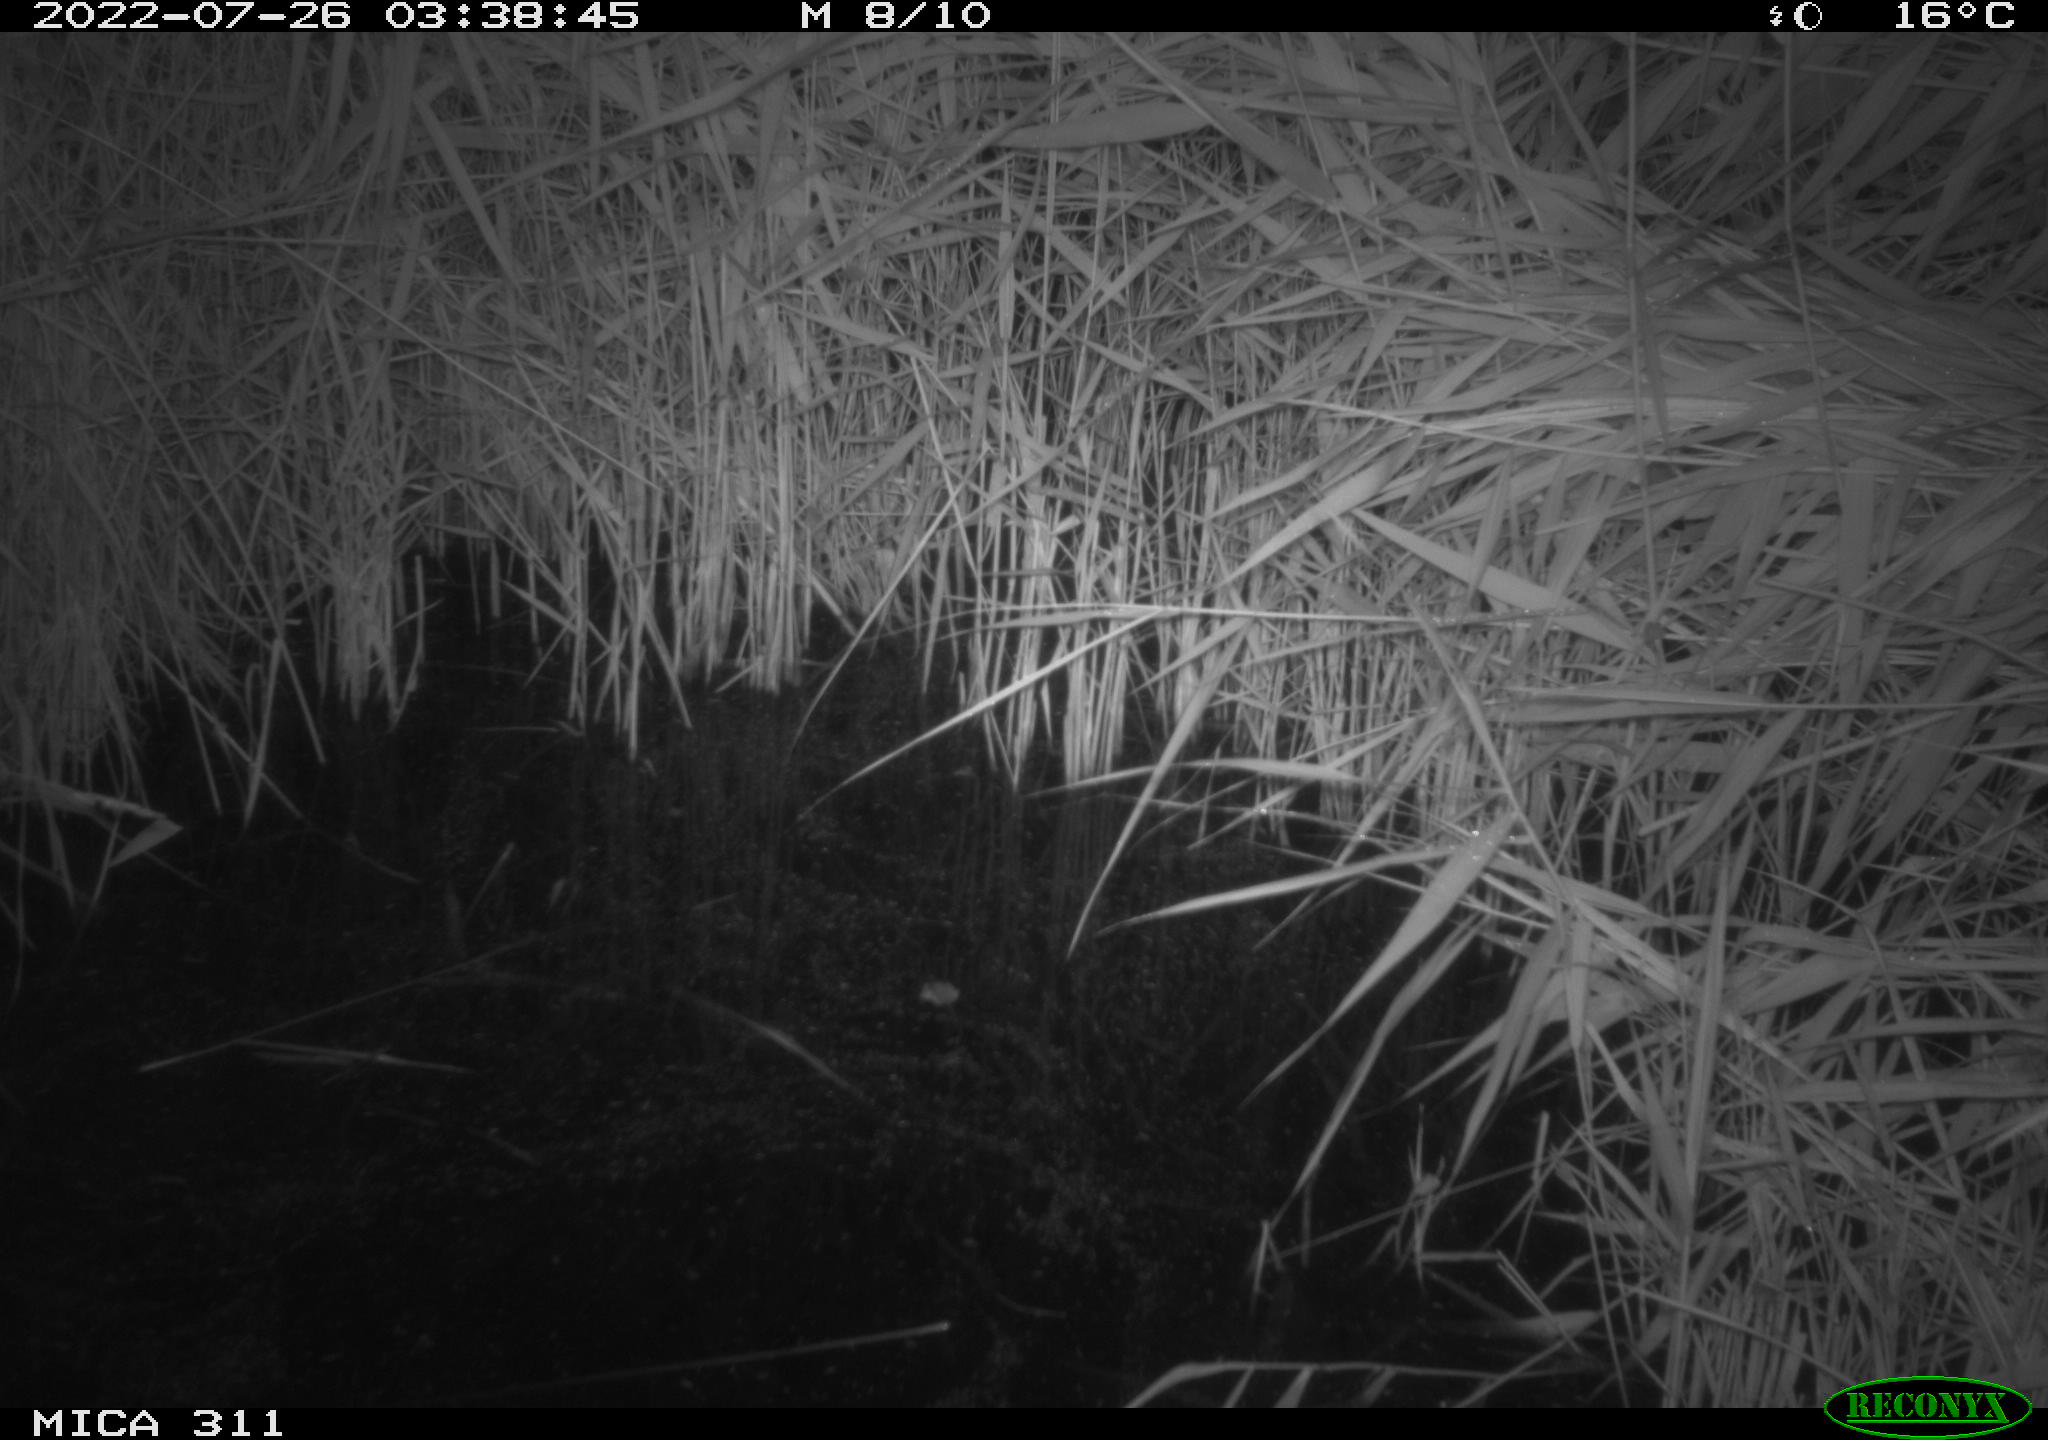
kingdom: Animalia
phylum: Chordata
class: Mammalia
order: Rodentia
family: Muridae
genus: Rattus
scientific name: Rattus norvegicus
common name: Brown rat
